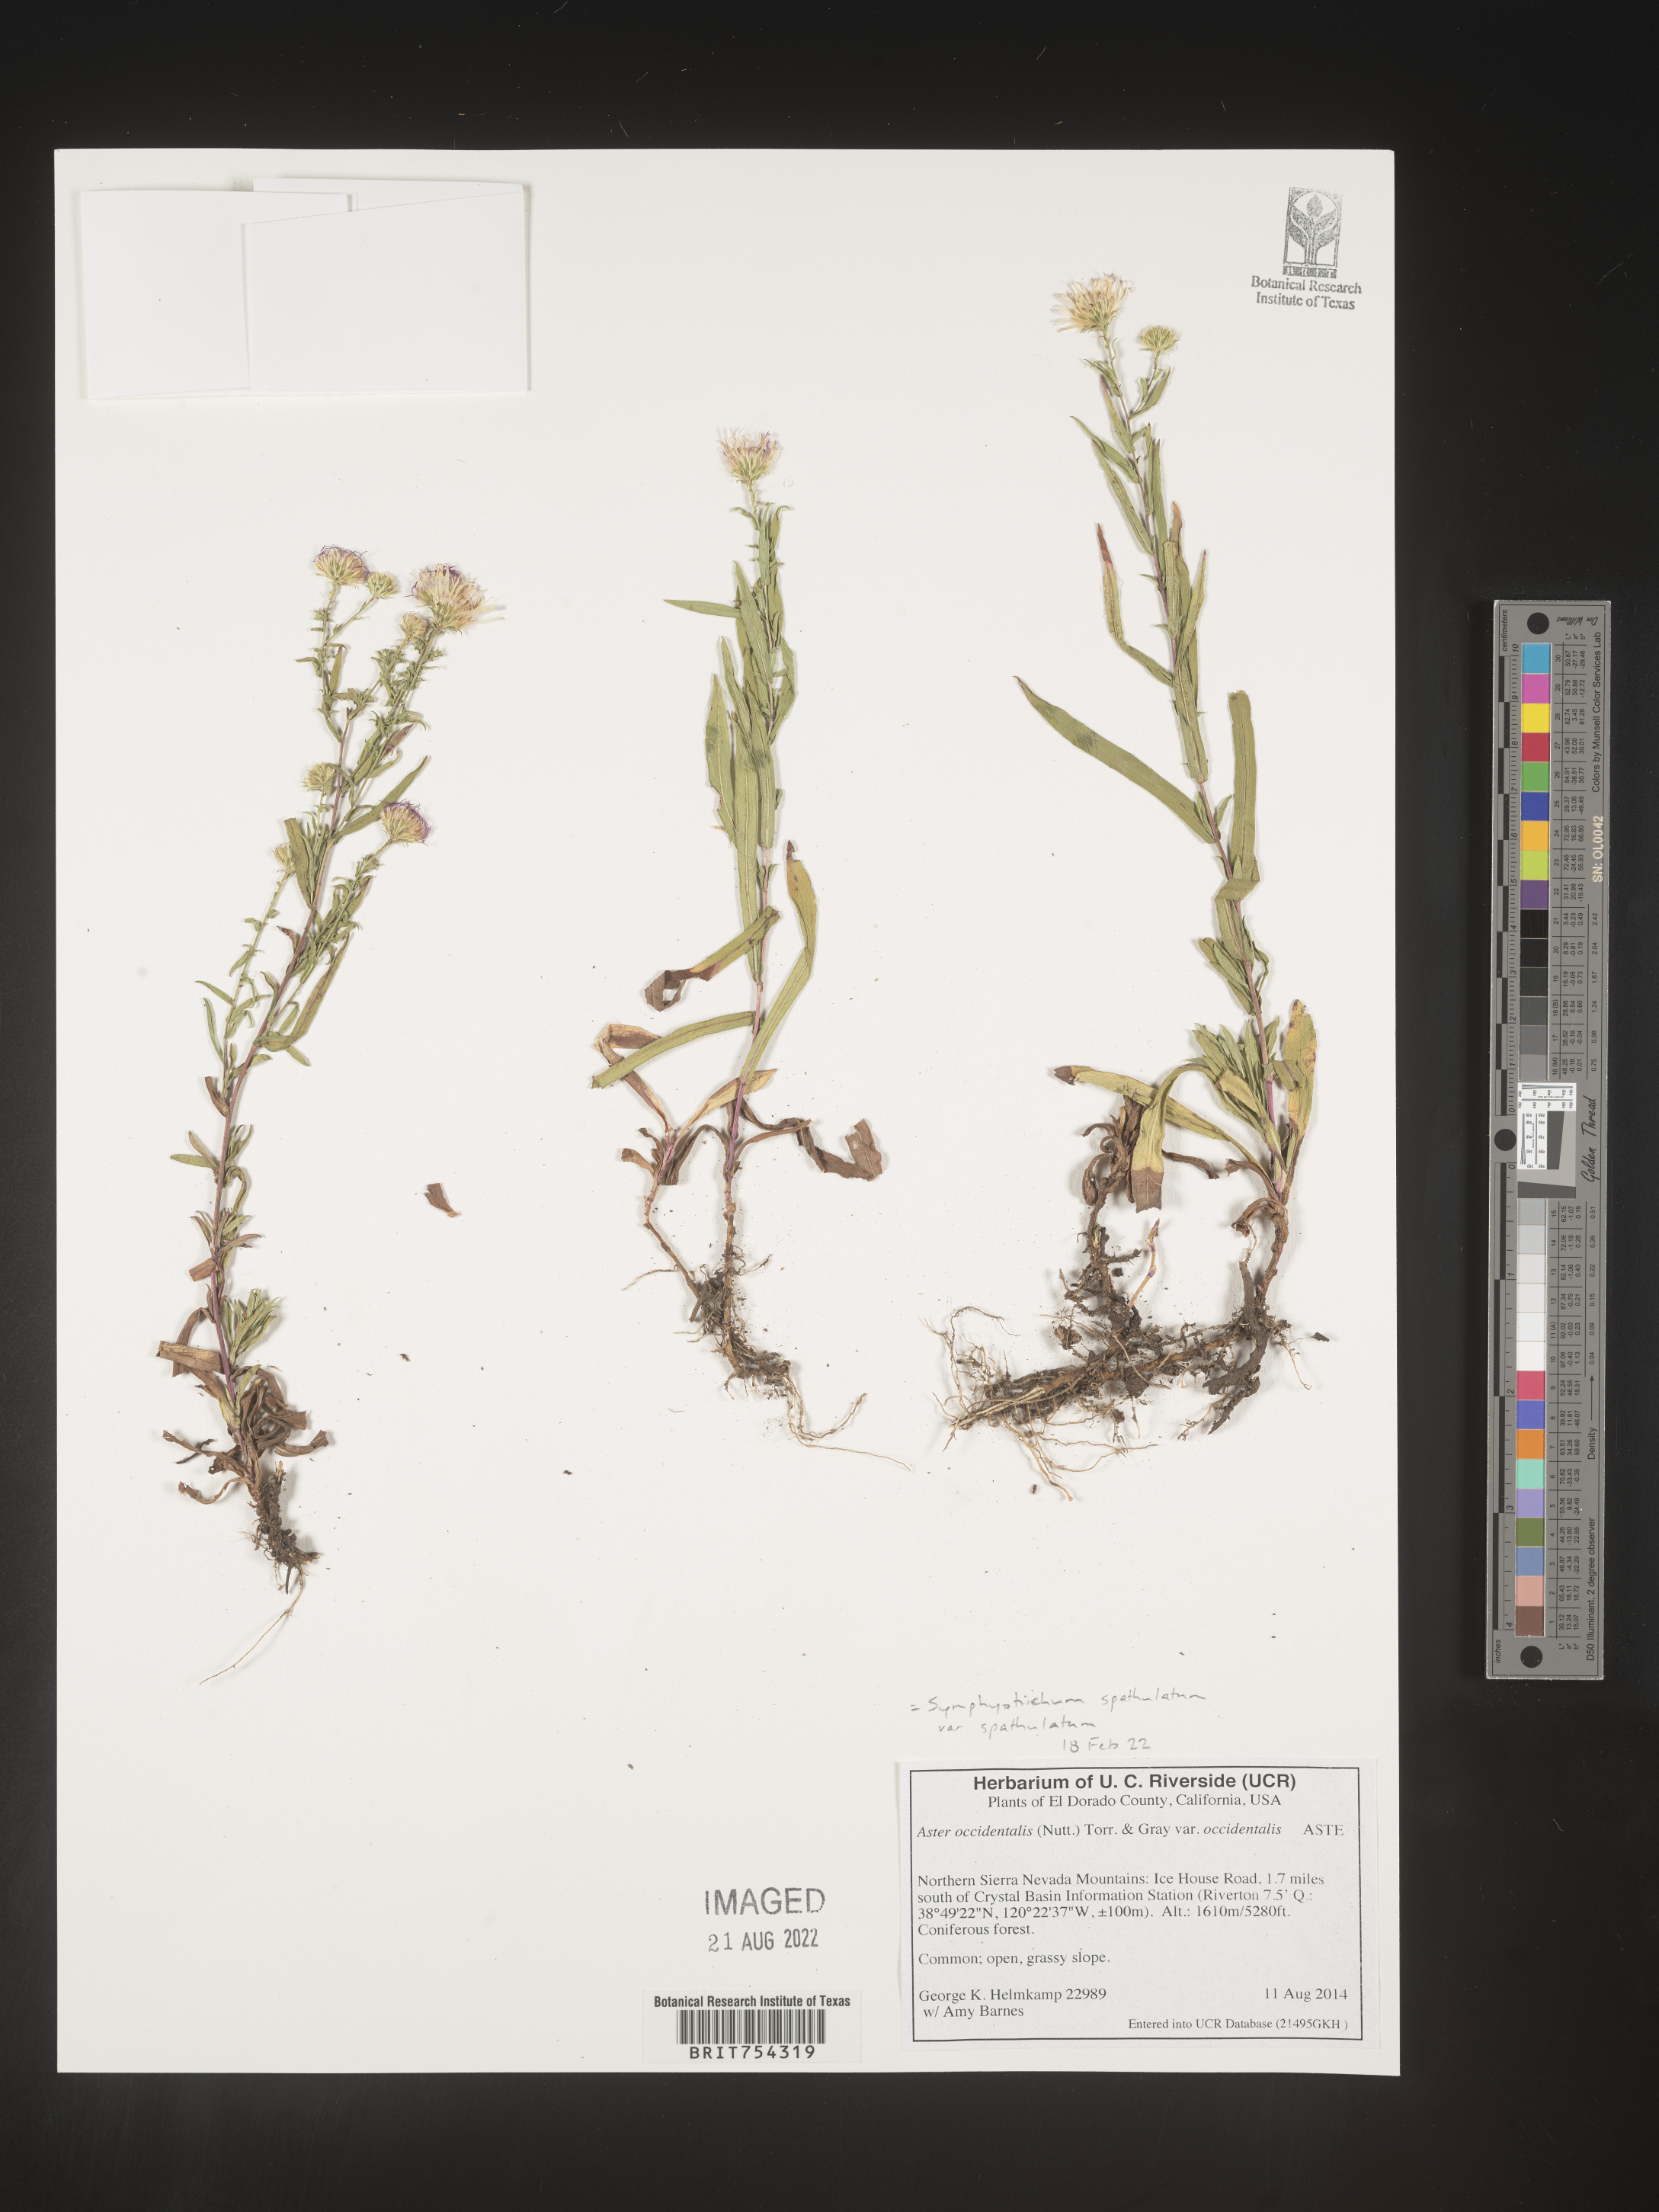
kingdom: Plantae
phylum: Tracheophyta
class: Magnoliopsida
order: Asterales
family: Asteraceae
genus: Symphyotrichum
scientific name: Symphyotrichum spathulatum
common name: Western mountain aster
